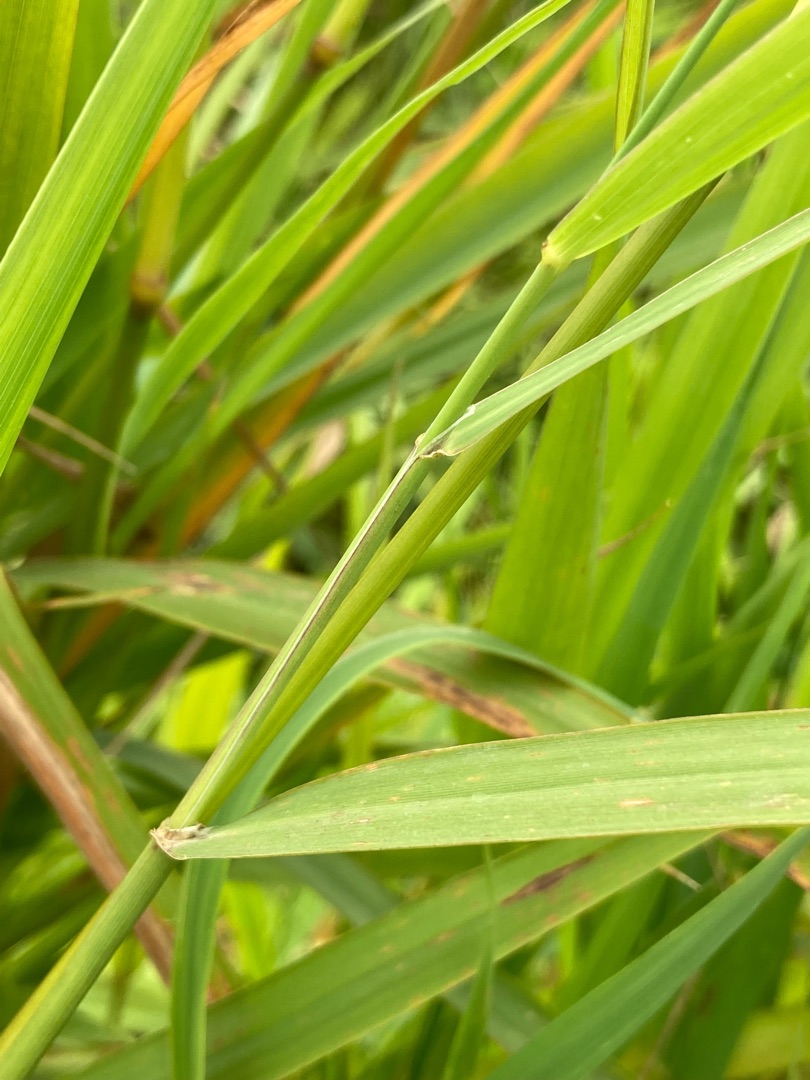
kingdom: Plantae
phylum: Tracheophyta
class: Liliopsida
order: Poales
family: Poaceae
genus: Phalaris
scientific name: Phalaris arundinacea
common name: Rørgræs
